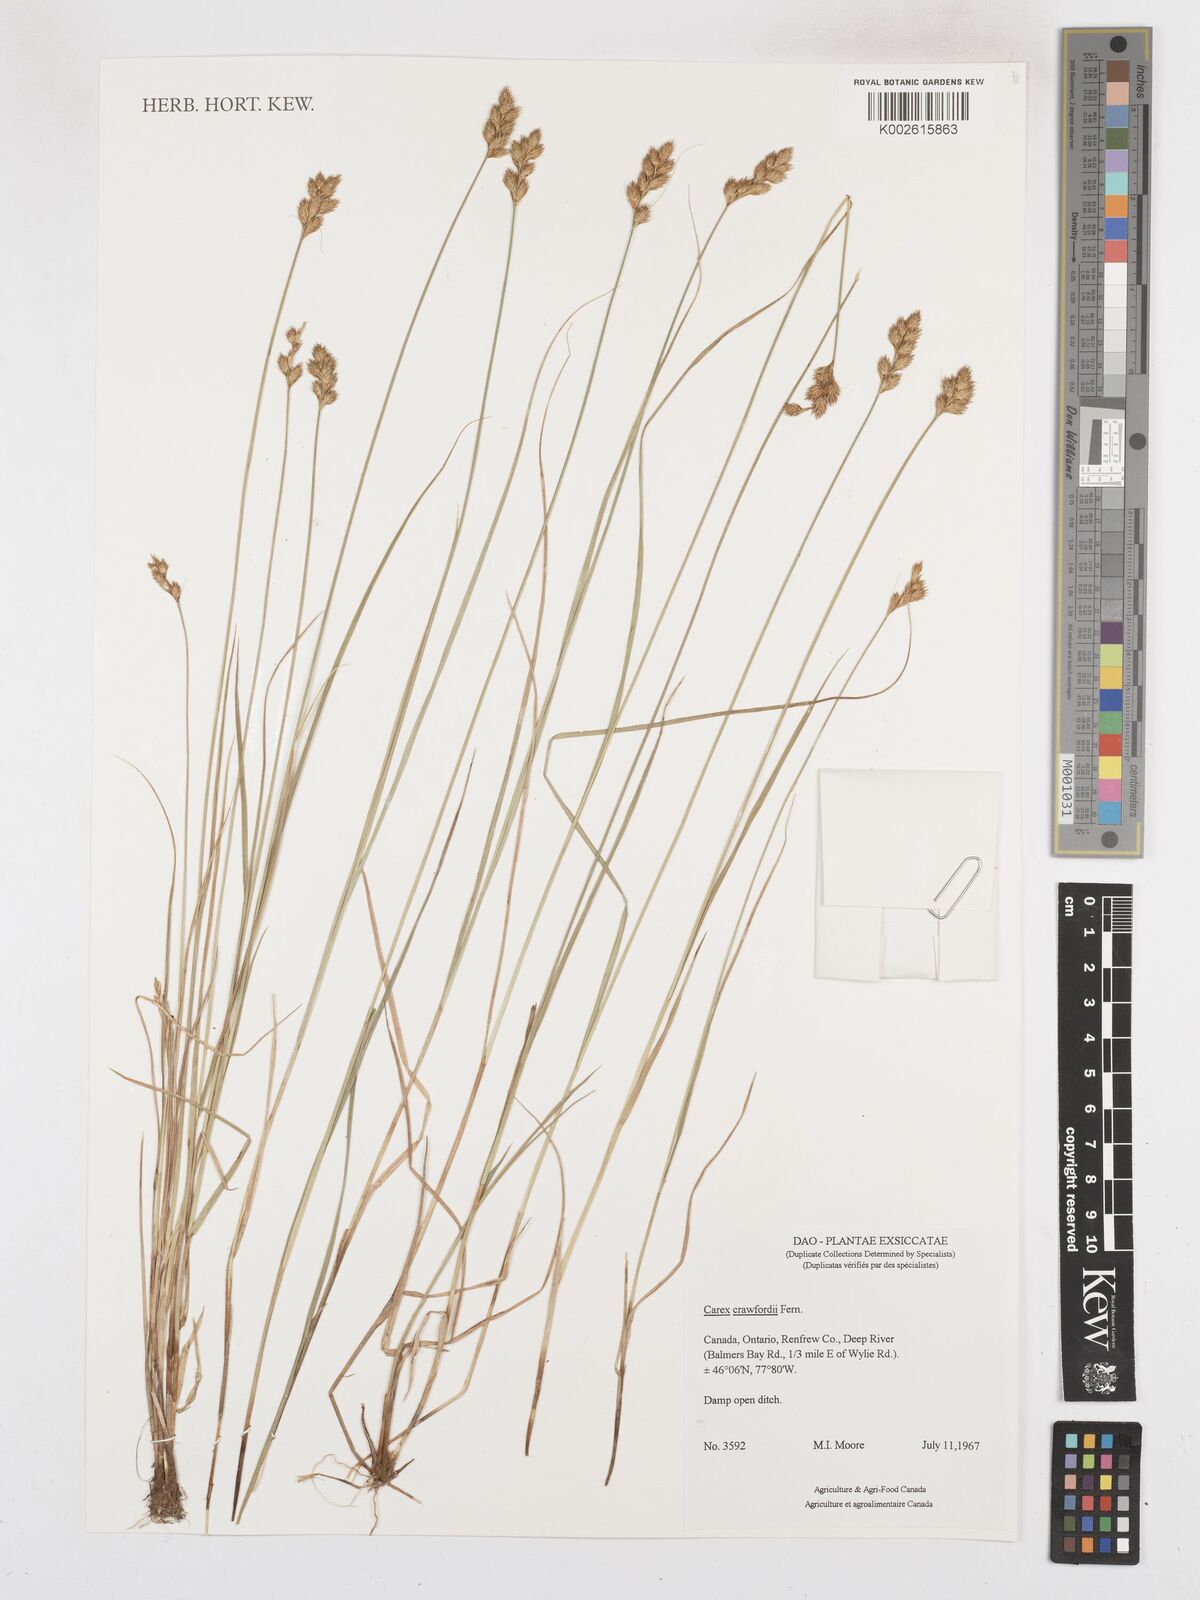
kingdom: Plantae
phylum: Tracheophyta
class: Liliopsida
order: Poales
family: Cyperaceae
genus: Carex
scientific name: Carex crawfordii
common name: Crawford's sedge
